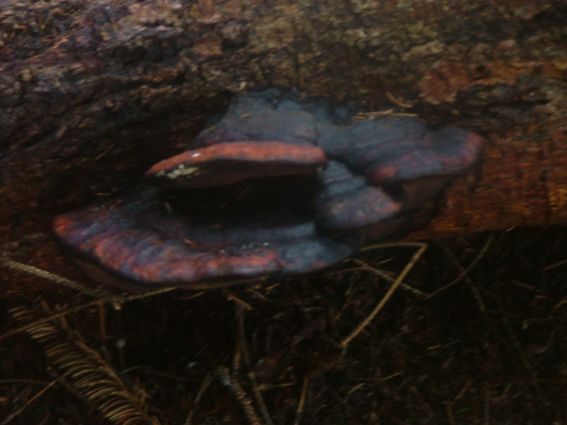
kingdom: Fungi
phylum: Basidiomycota
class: Agaricomycetes
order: Polyporales
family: Fomitopsidaceae
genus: Fomitopsis
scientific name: Fomitopsis pinicola
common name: randbæltet hovporesvamp
